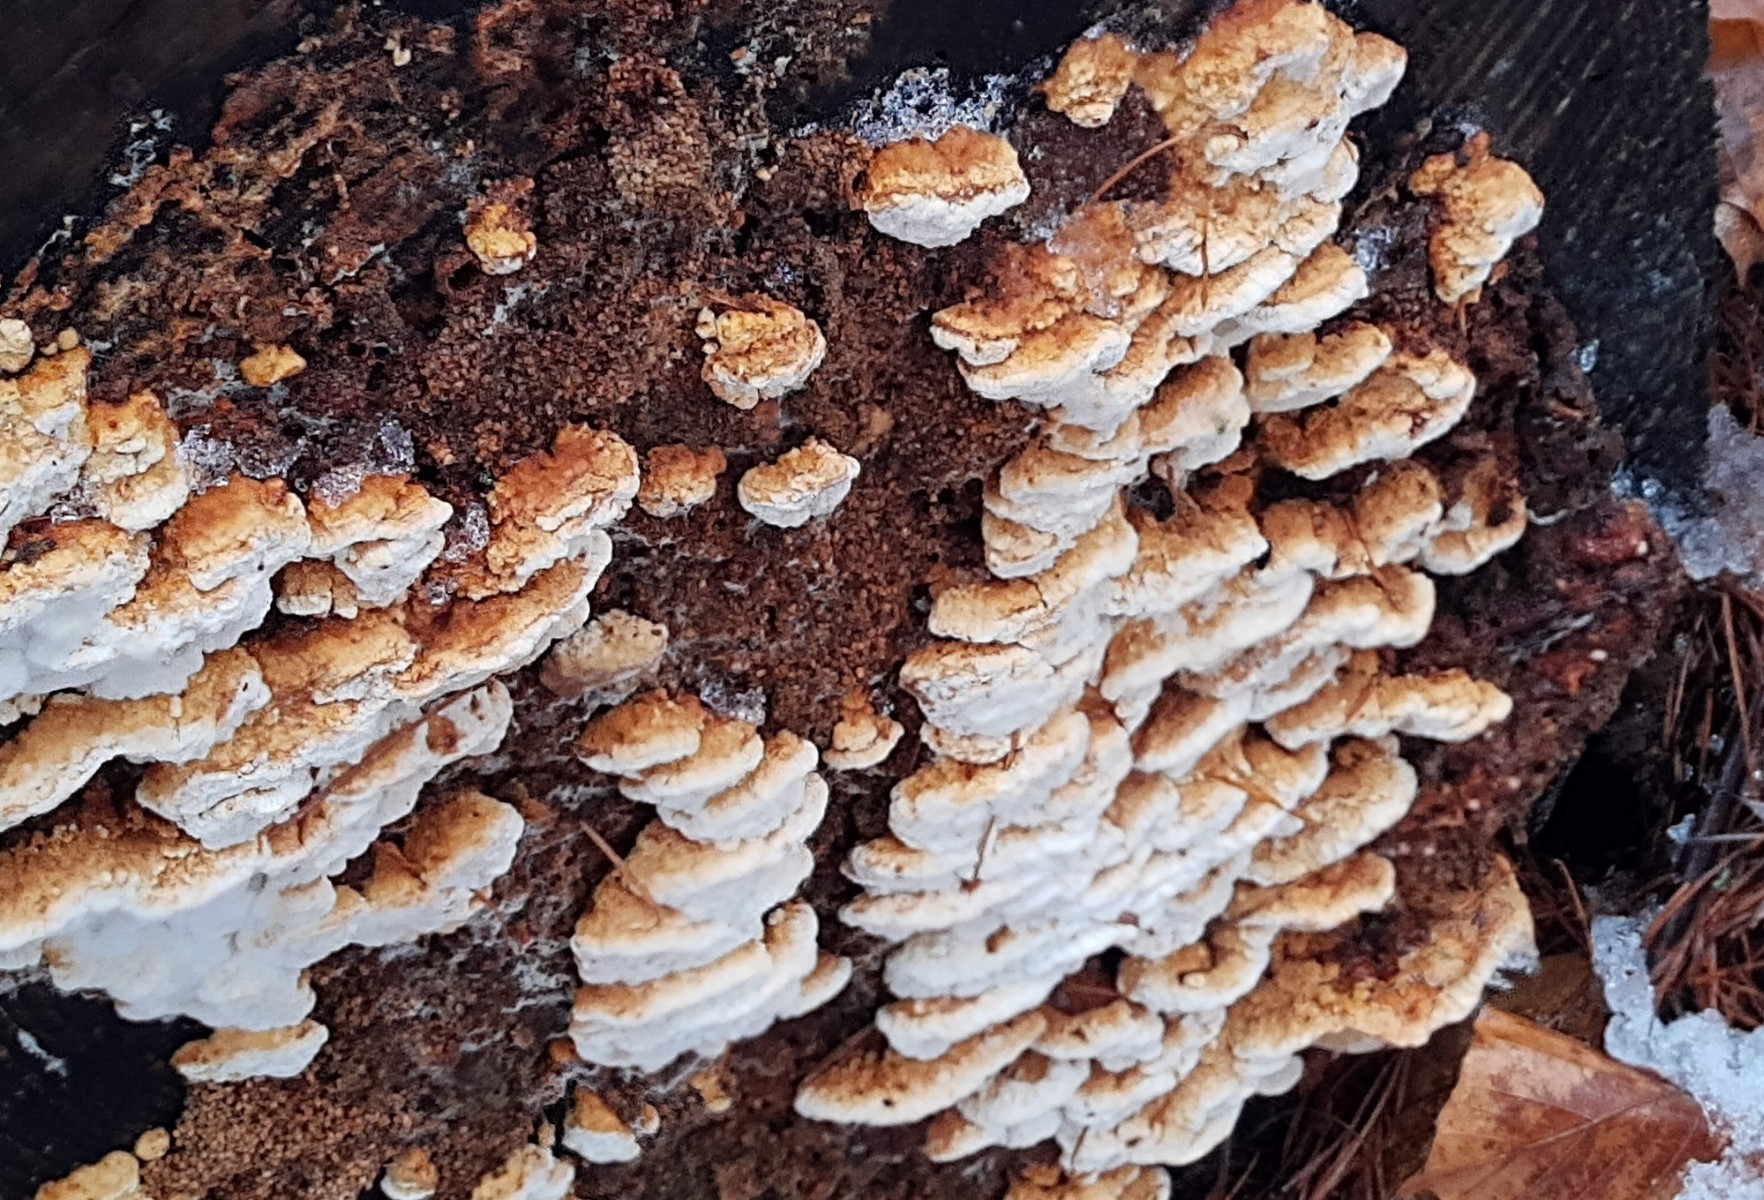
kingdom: Fungi
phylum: Basidiomycota
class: Agaricomycetes
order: Polyporales
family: Fomitopsidaceae
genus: Neoantrodia
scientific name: Neoantrodia serialis
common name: række-sejporesvamp
